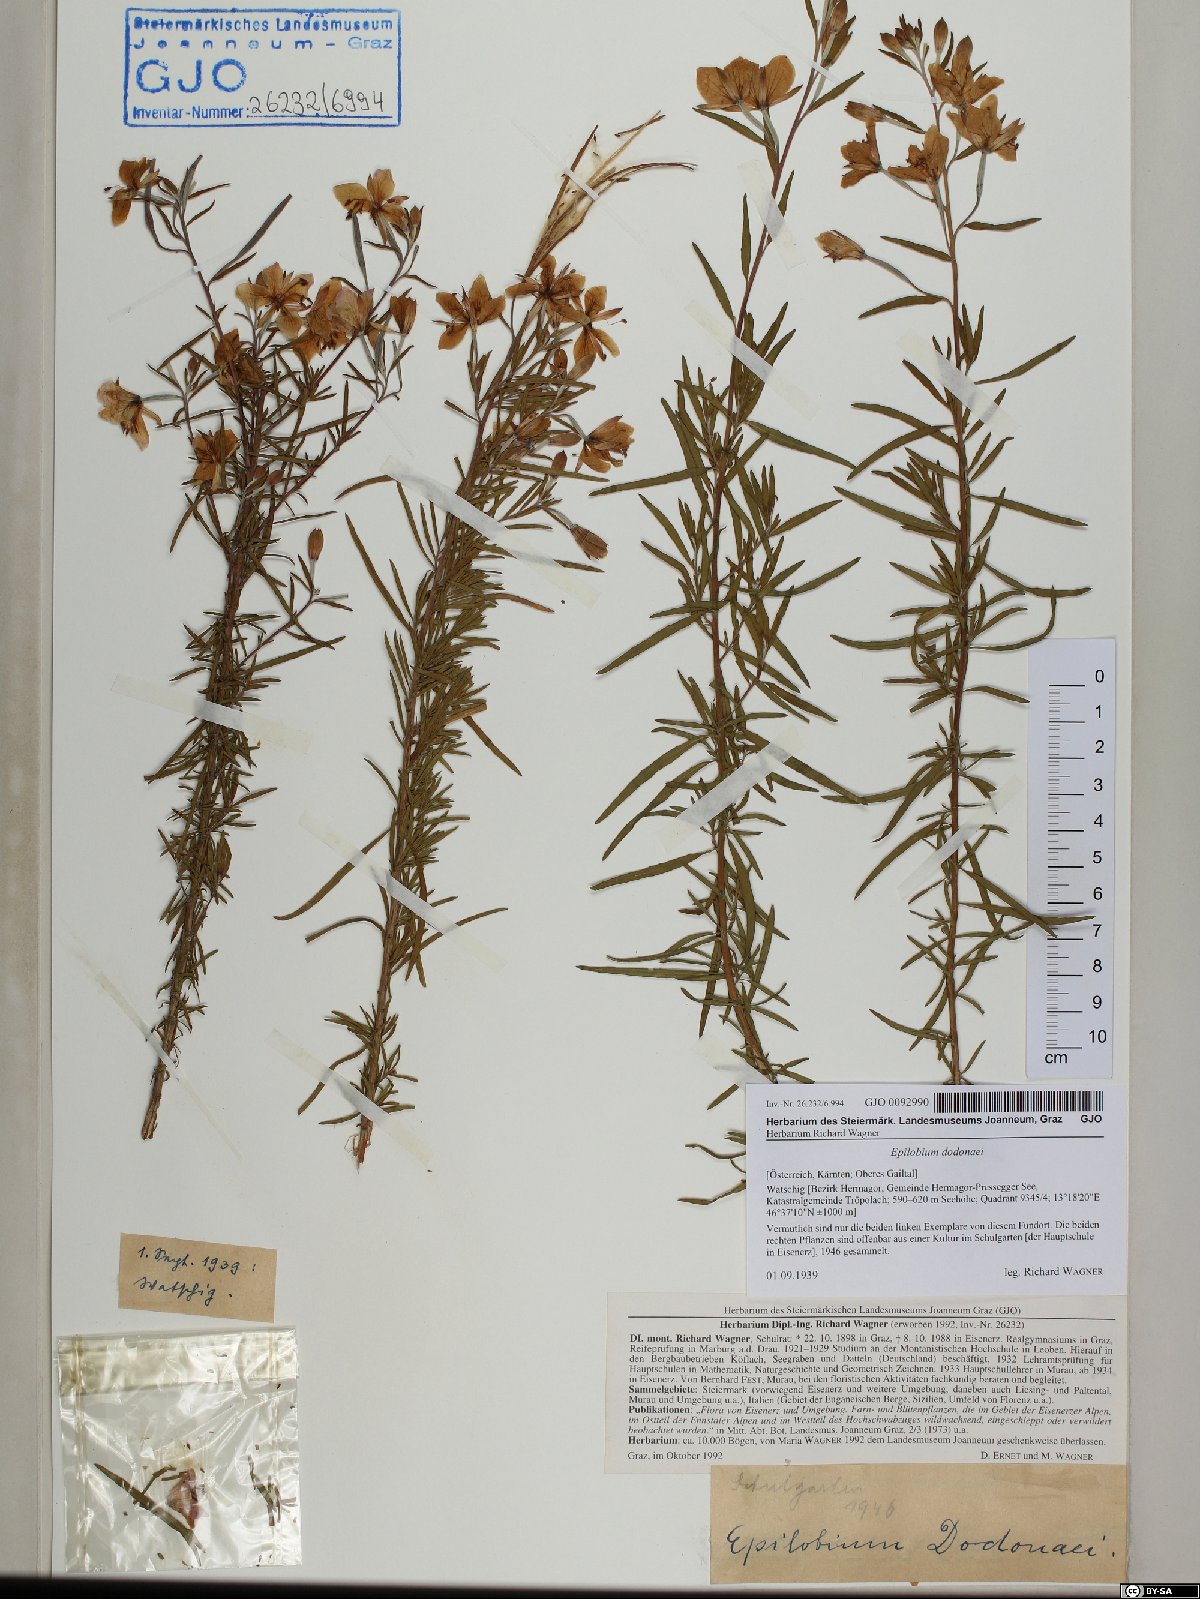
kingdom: Plantae
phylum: Tracheophyta
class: Magnoliopsida
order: Myrtales
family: Onagraceae
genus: Chamaenerion
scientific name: Chamaenerion dodonaei
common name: Rosemary-leaved willowherb
